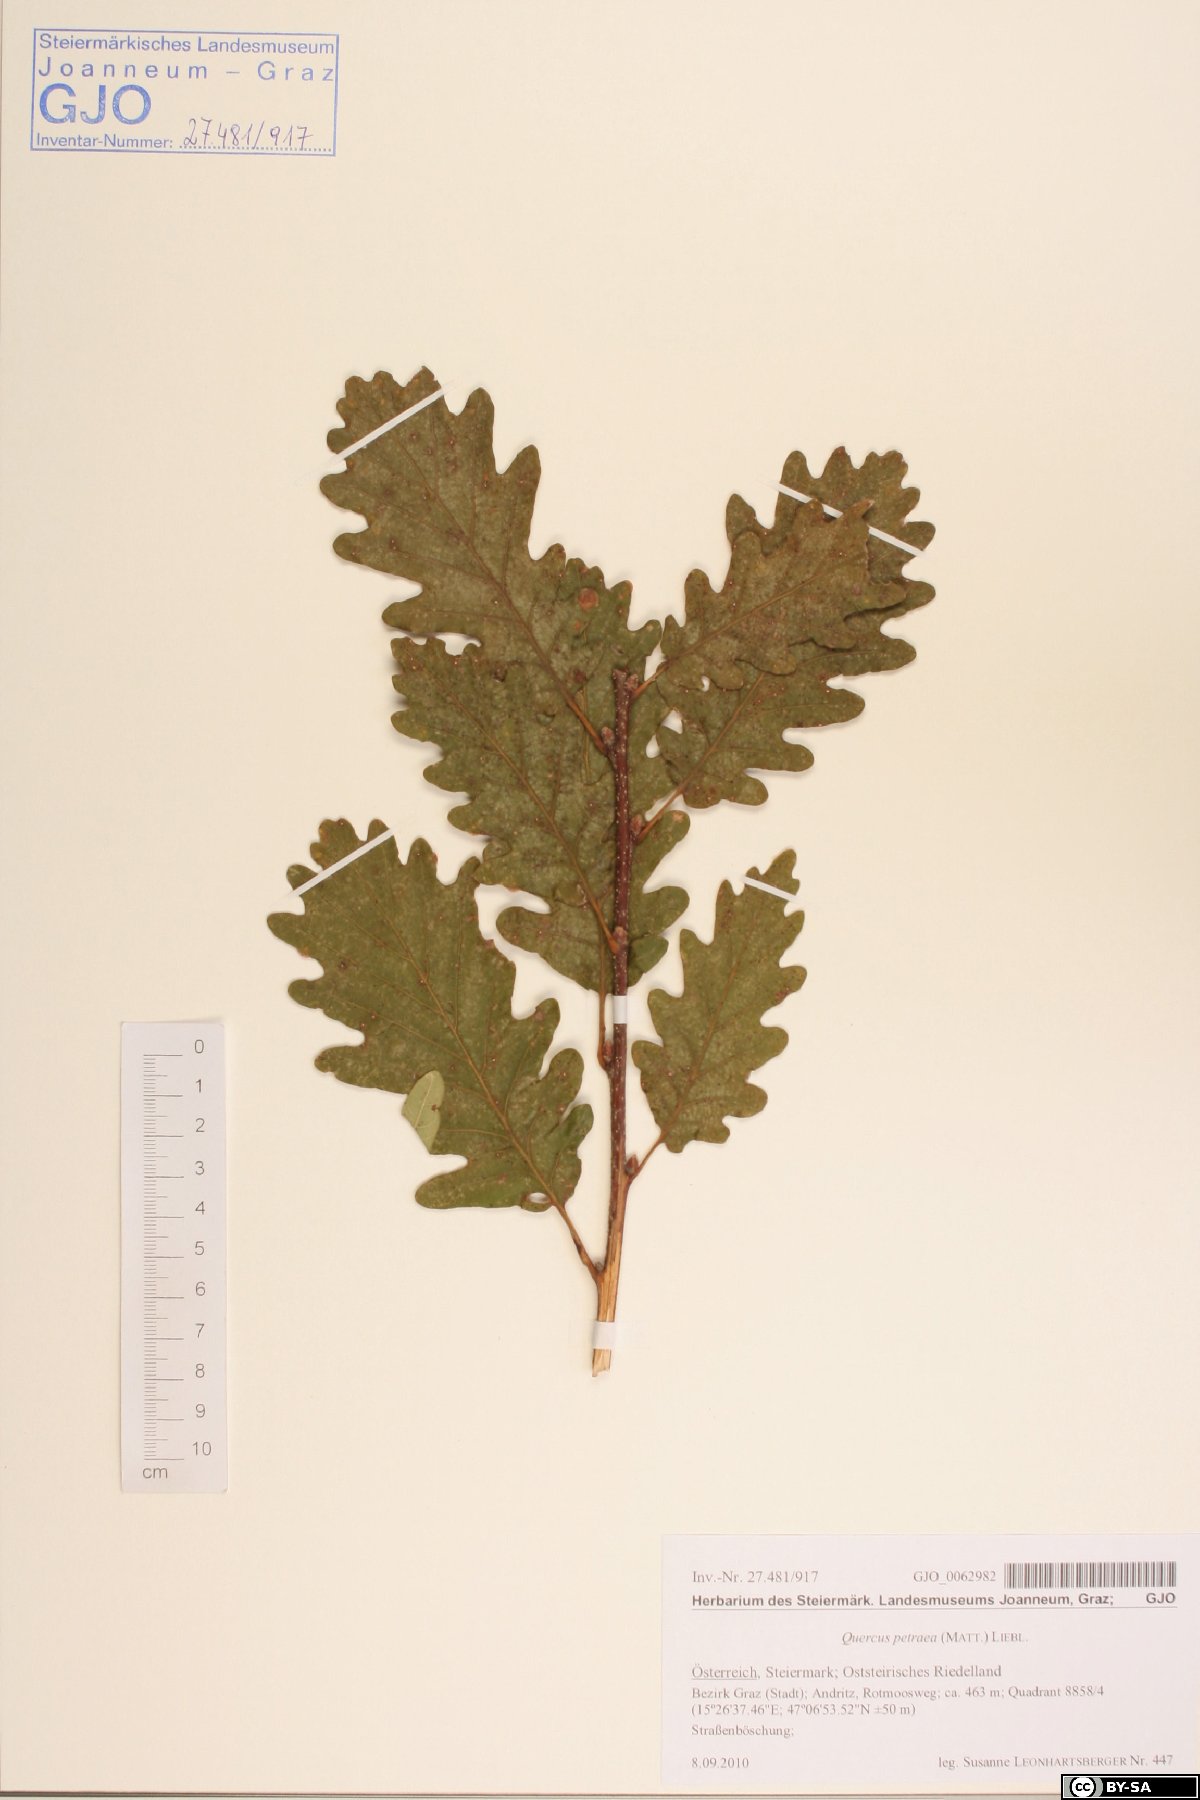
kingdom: Plantae
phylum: Tracheophyta
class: Magnoliopsida
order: Fagales
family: Fagaceae
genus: Quercus
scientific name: Quercus petraea
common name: Sessile oak
